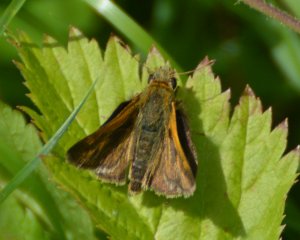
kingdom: Animalia
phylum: Arthropoda
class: Insecta
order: Lepidoptera
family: Hesperiidae
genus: Polites
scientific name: Polites themistocles
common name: Tawny-edged Skipper
